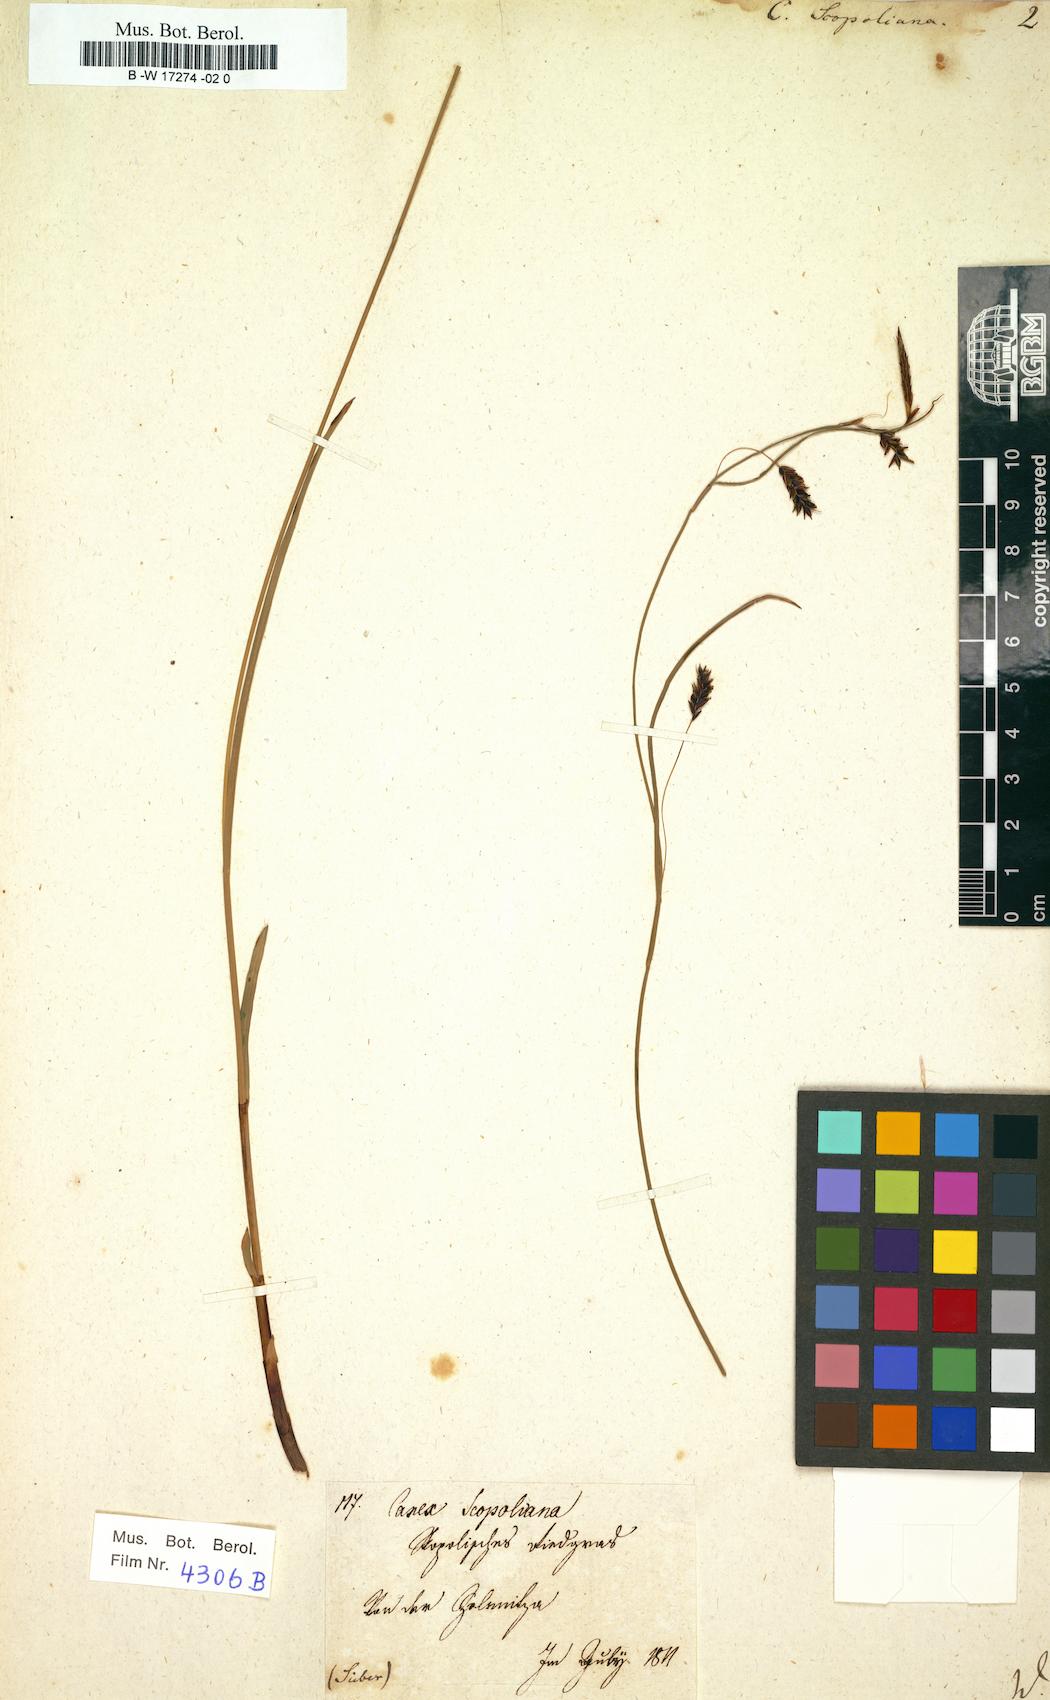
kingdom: Plantae
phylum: Tracheophyta
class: Liliopsida
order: Poales
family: Cyperaceae
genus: Carex
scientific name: Carex ferruginea
